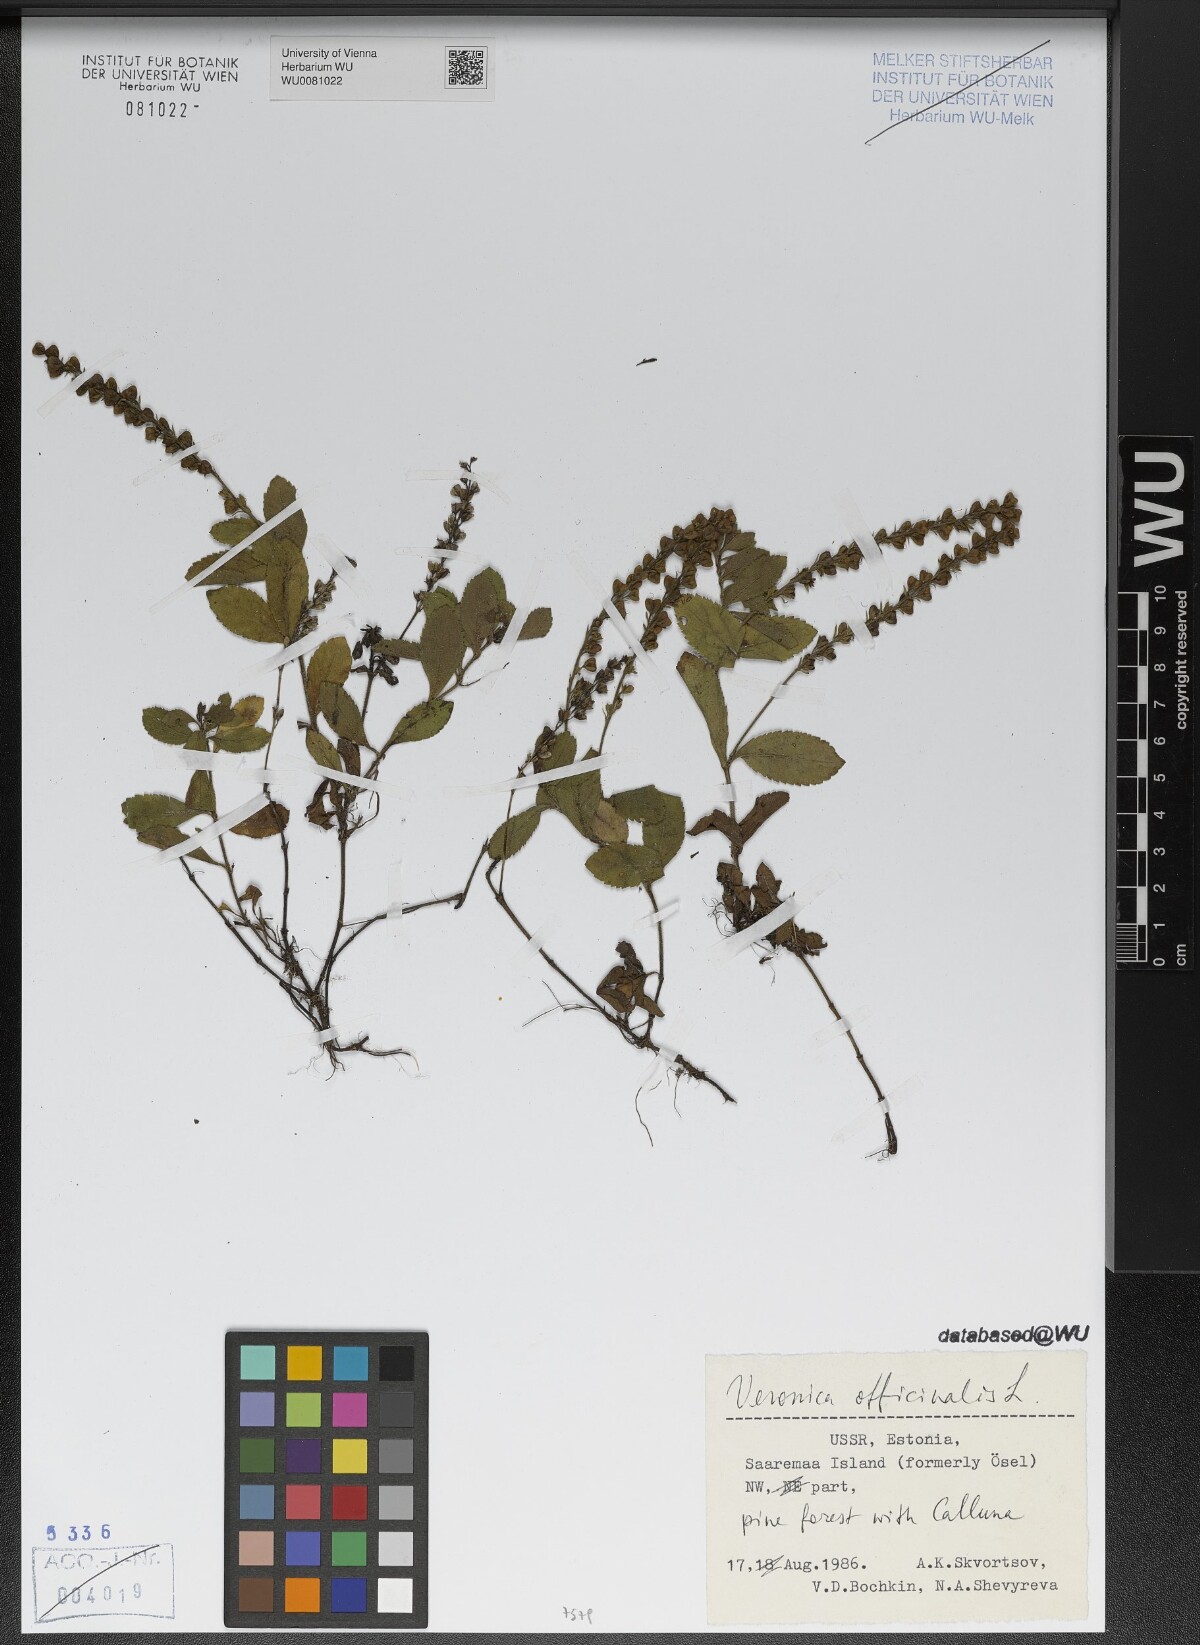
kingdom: Plantae
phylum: Tracheophyta
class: Magnoliopsida
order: Lamiales
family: Plantaginaceae
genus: Veronica
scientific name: Veronica officinalis
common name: Common speedwell
